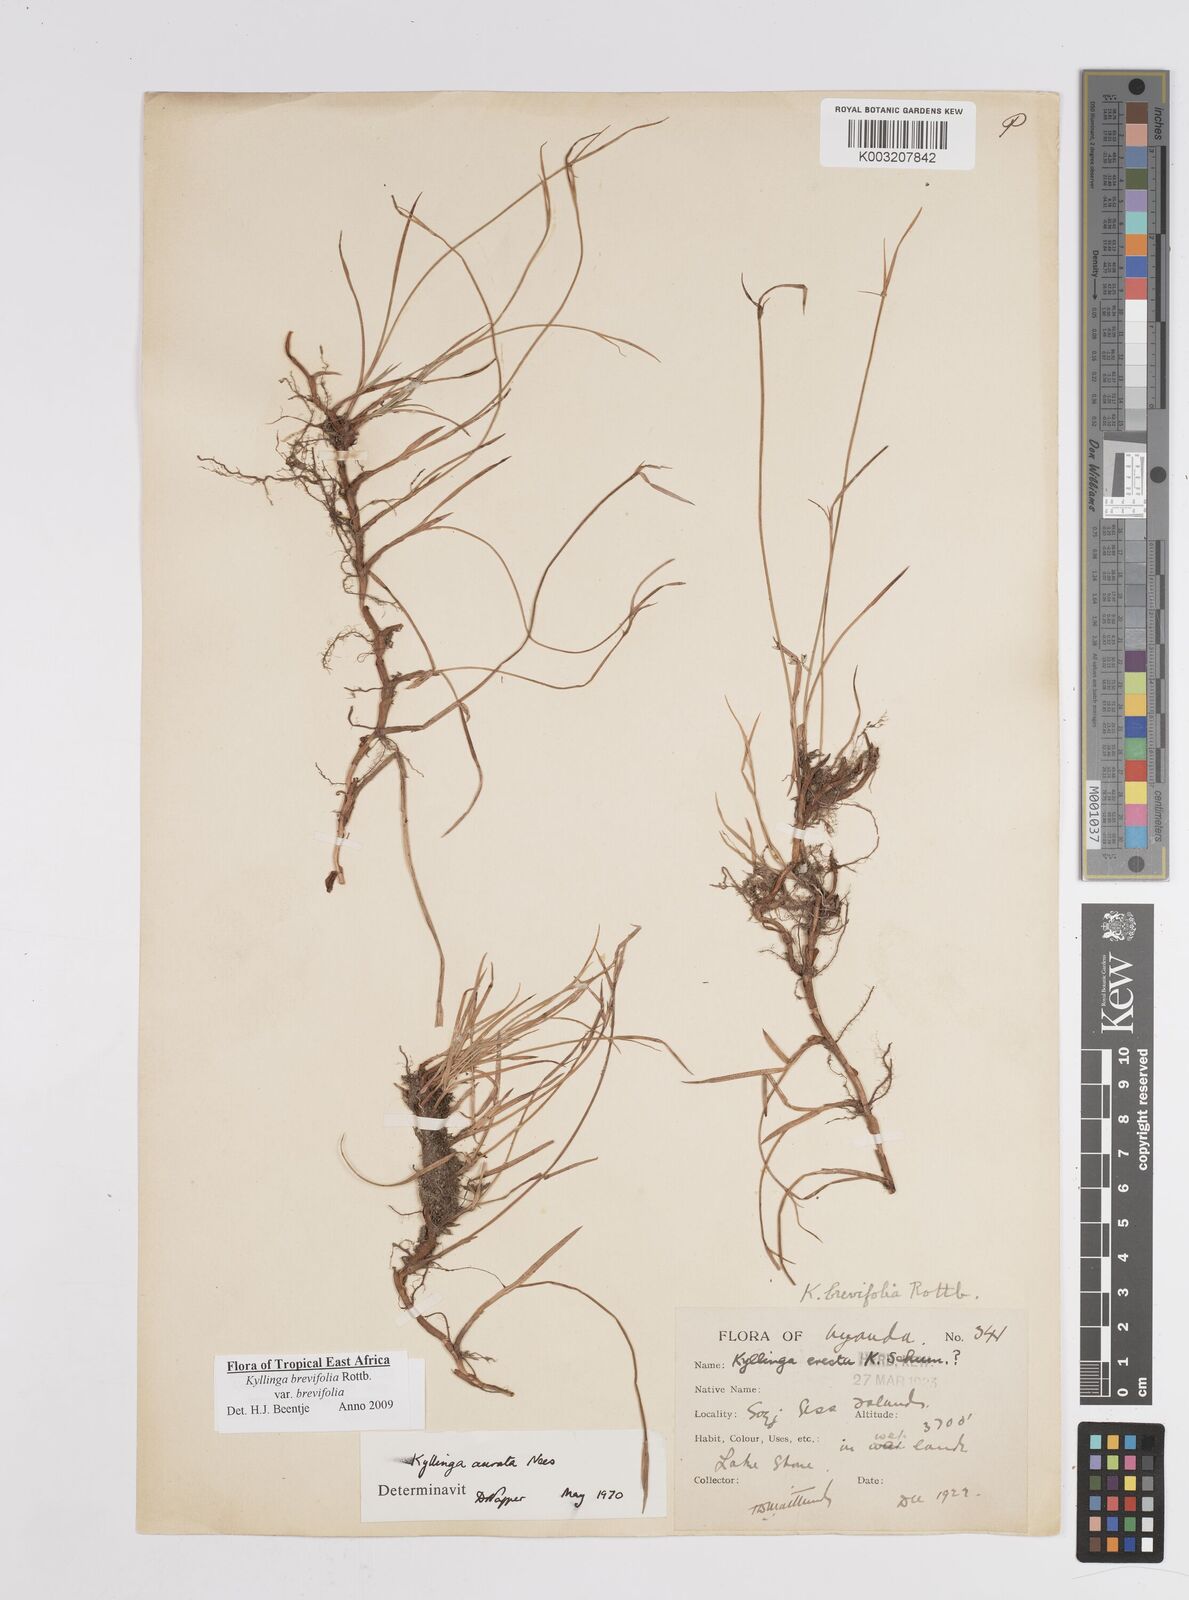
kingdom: Plantae
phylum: Tracheophyta
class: Liliopsida
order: Poales
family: Cyperaceae
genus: Cyperus
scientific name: Cyperus erectus
